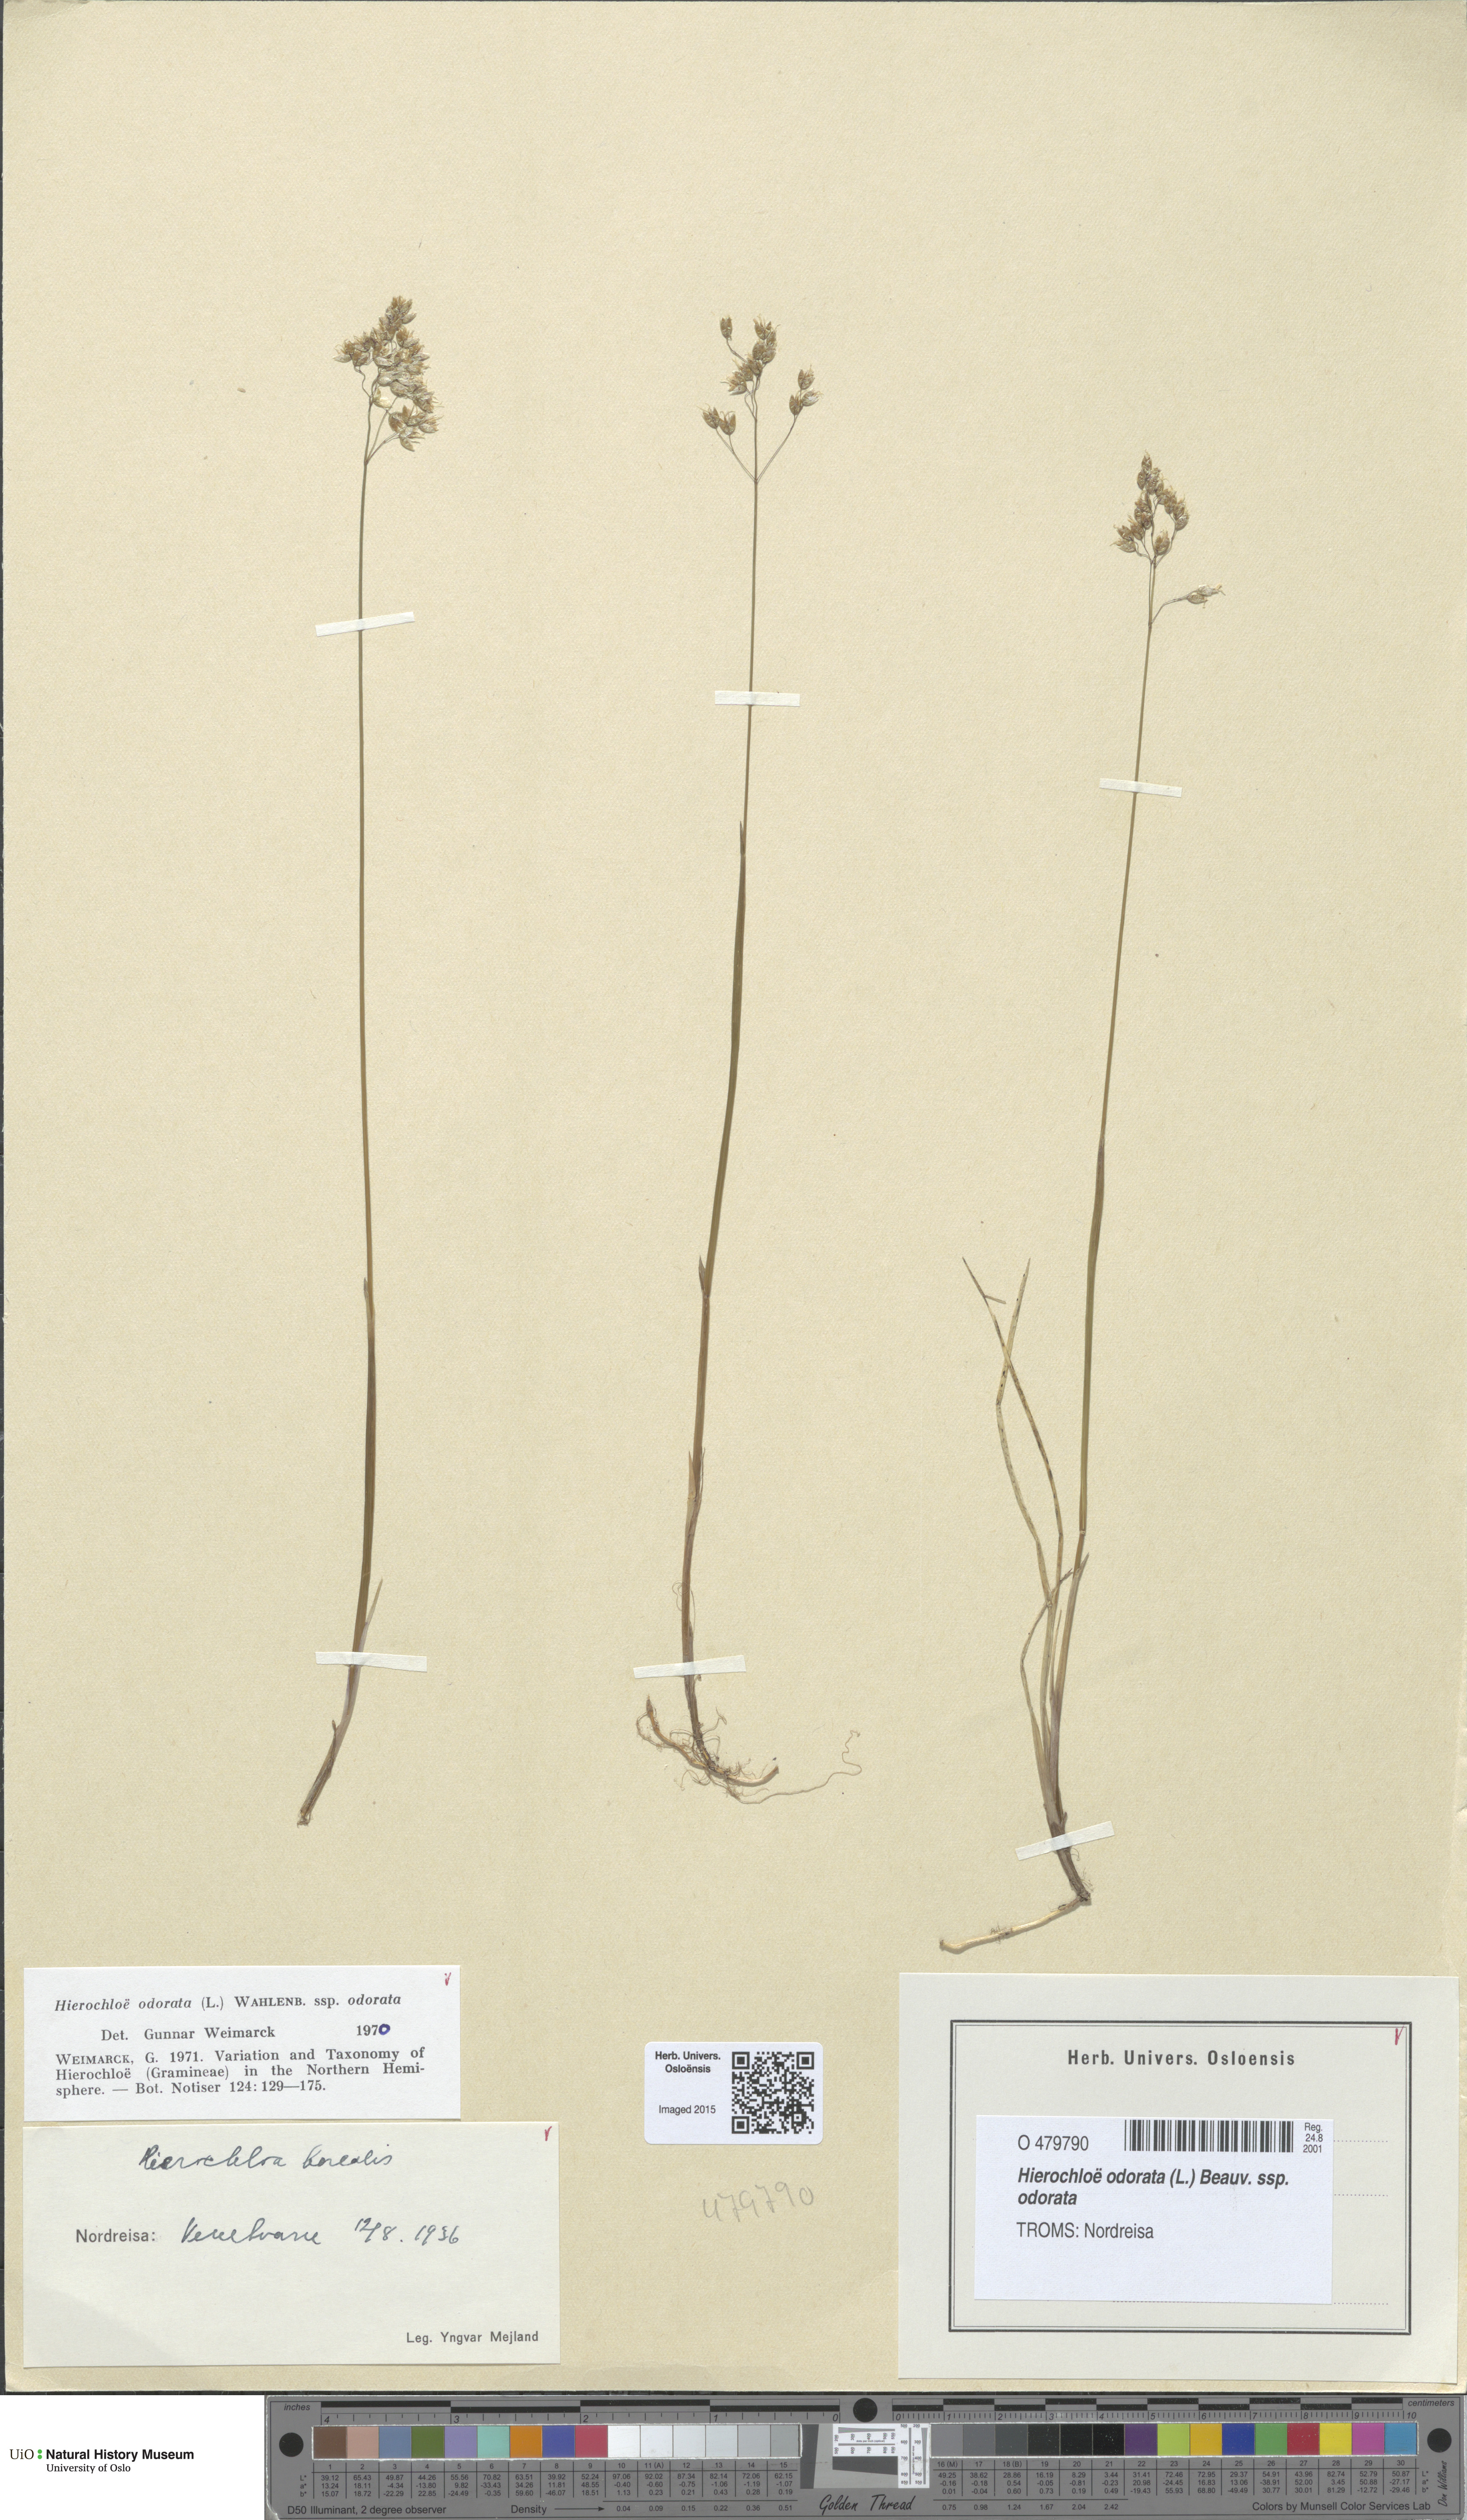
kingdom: Plantae
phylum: Tracheophyta
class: Liliopsida
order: Poales
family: Poaceae
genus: Anthoxanthum
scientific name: Anthoxanthum nitens
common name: Holy grass
